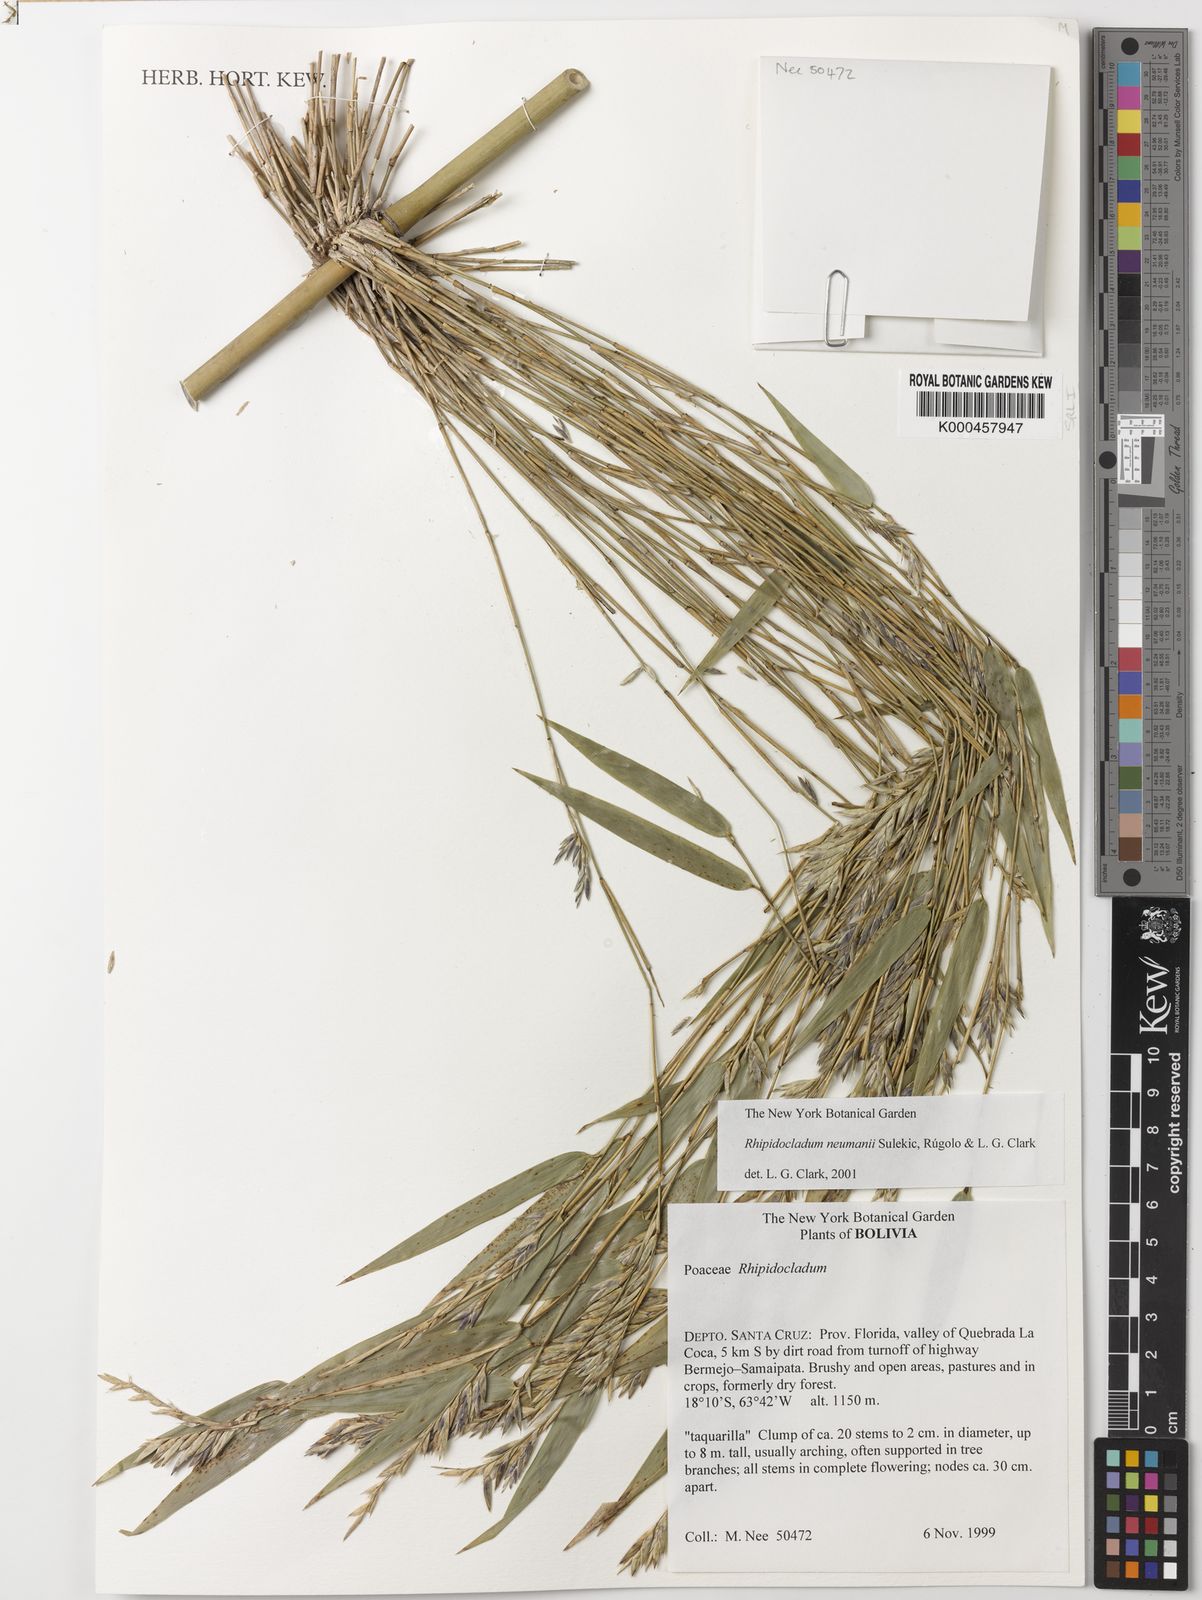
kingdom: Plantae
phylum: Tracheophyta
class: Liliopsida
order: Poales
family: Poaceae
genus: Rhipidocladum
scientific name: Rhipidocladum
